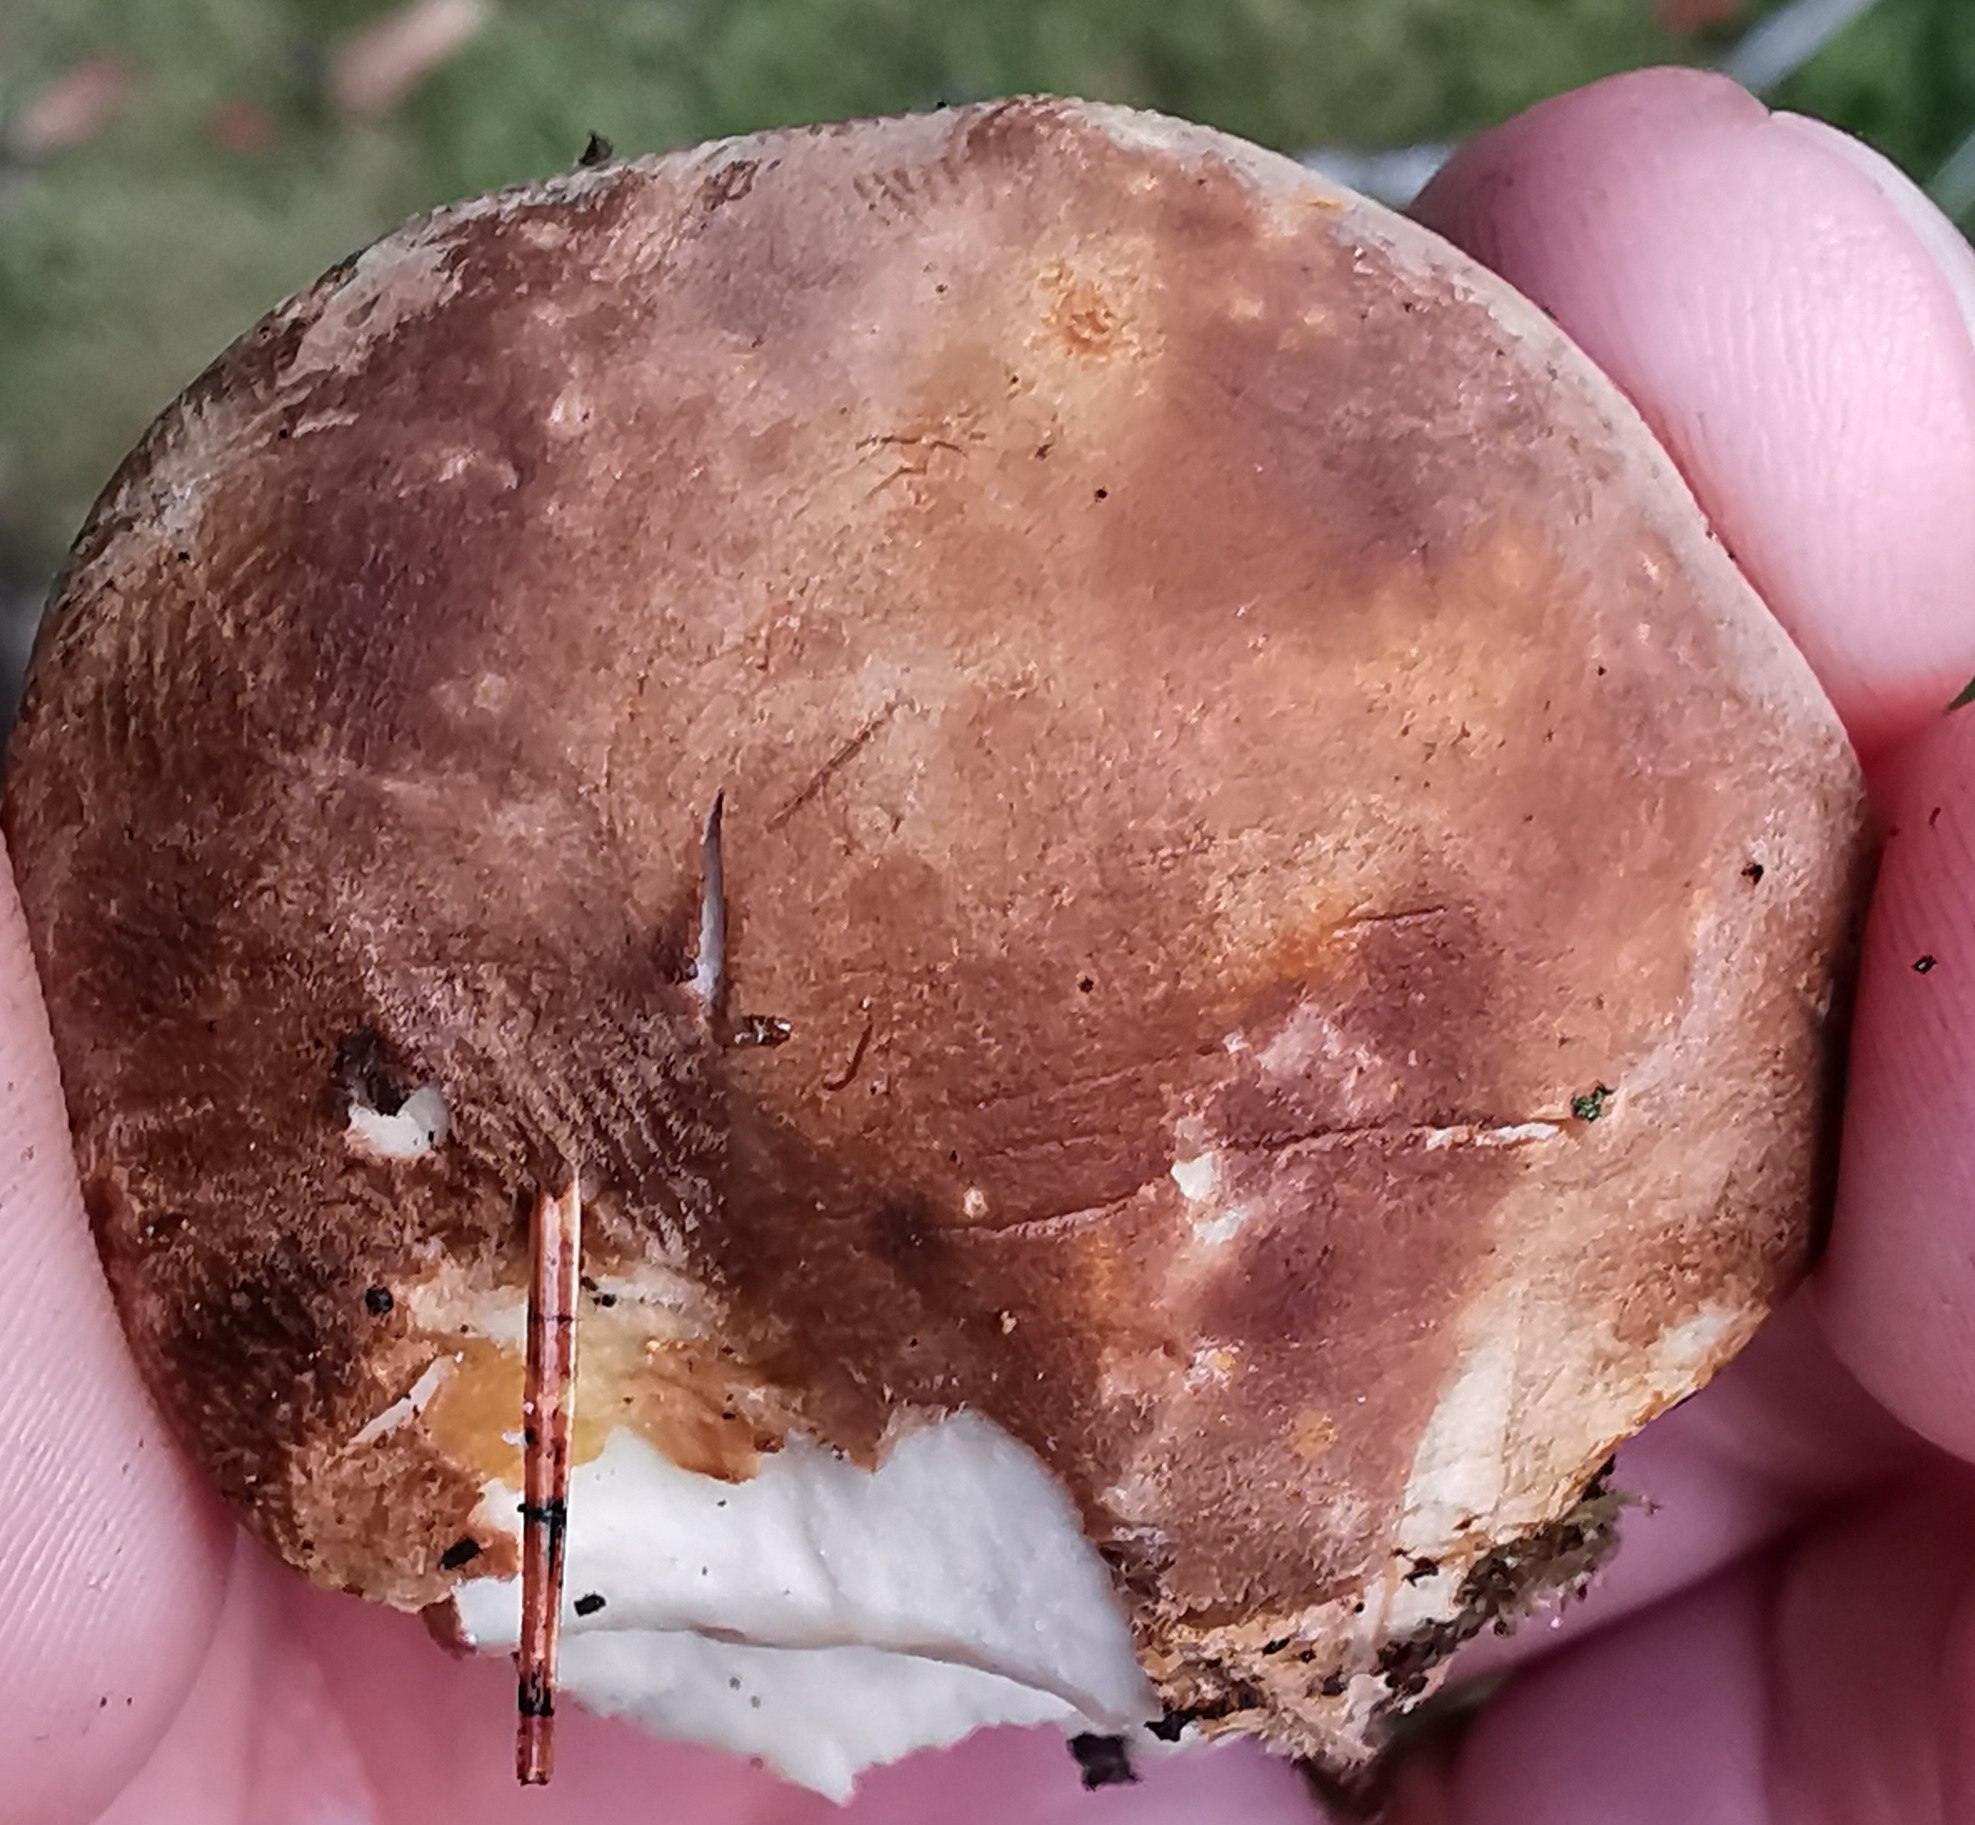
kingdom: Fungi
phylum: Basidiomycota
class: Agaricomycetes
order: Boletales
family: Tapinellaceae
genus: Tapinella
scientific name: Tapinella atrotomentosa
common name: sortfiltet viftesvamp
